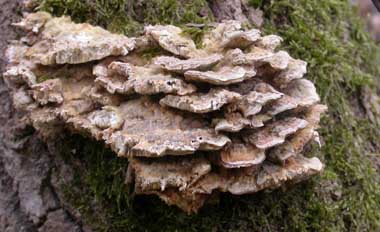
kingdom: Fungi
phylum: Basidiomycota
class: Agaricomycetes
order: Polyporales
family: Polyporaceae
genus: Trametes
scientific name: Trametes ochracea
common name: bæltet læderporesvamp
